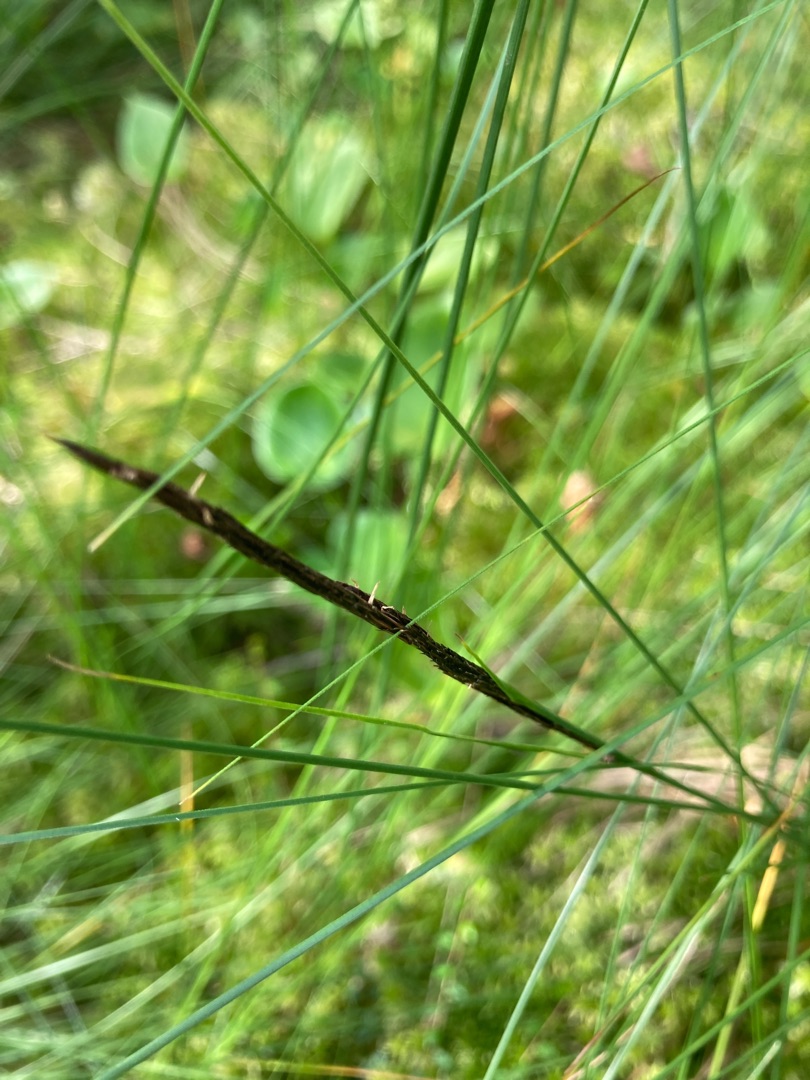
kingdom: Plantae
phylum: Tracheophyta
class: Liliopsida
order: Poales
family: Cyperaceae
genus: Carex
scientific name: Carex lasiocarpa
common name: Tråd-star
